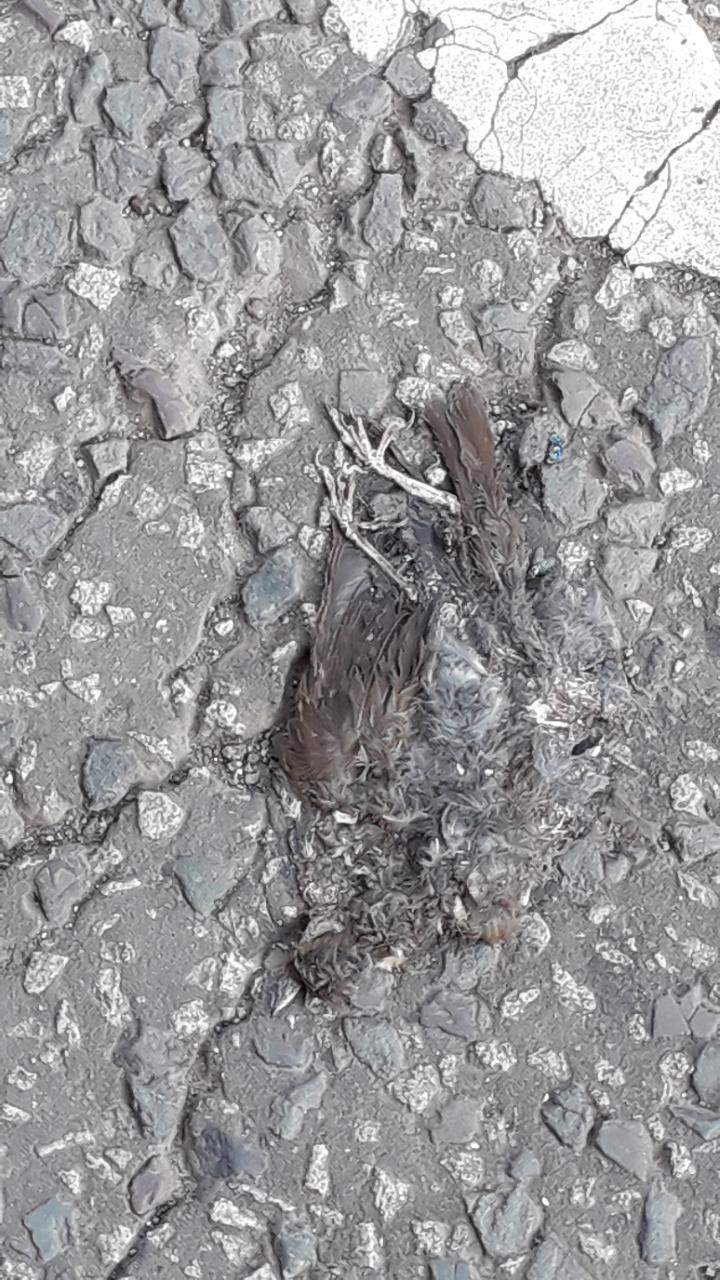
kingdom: Animalia
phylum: Chordata
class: Aves
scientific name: Aves
